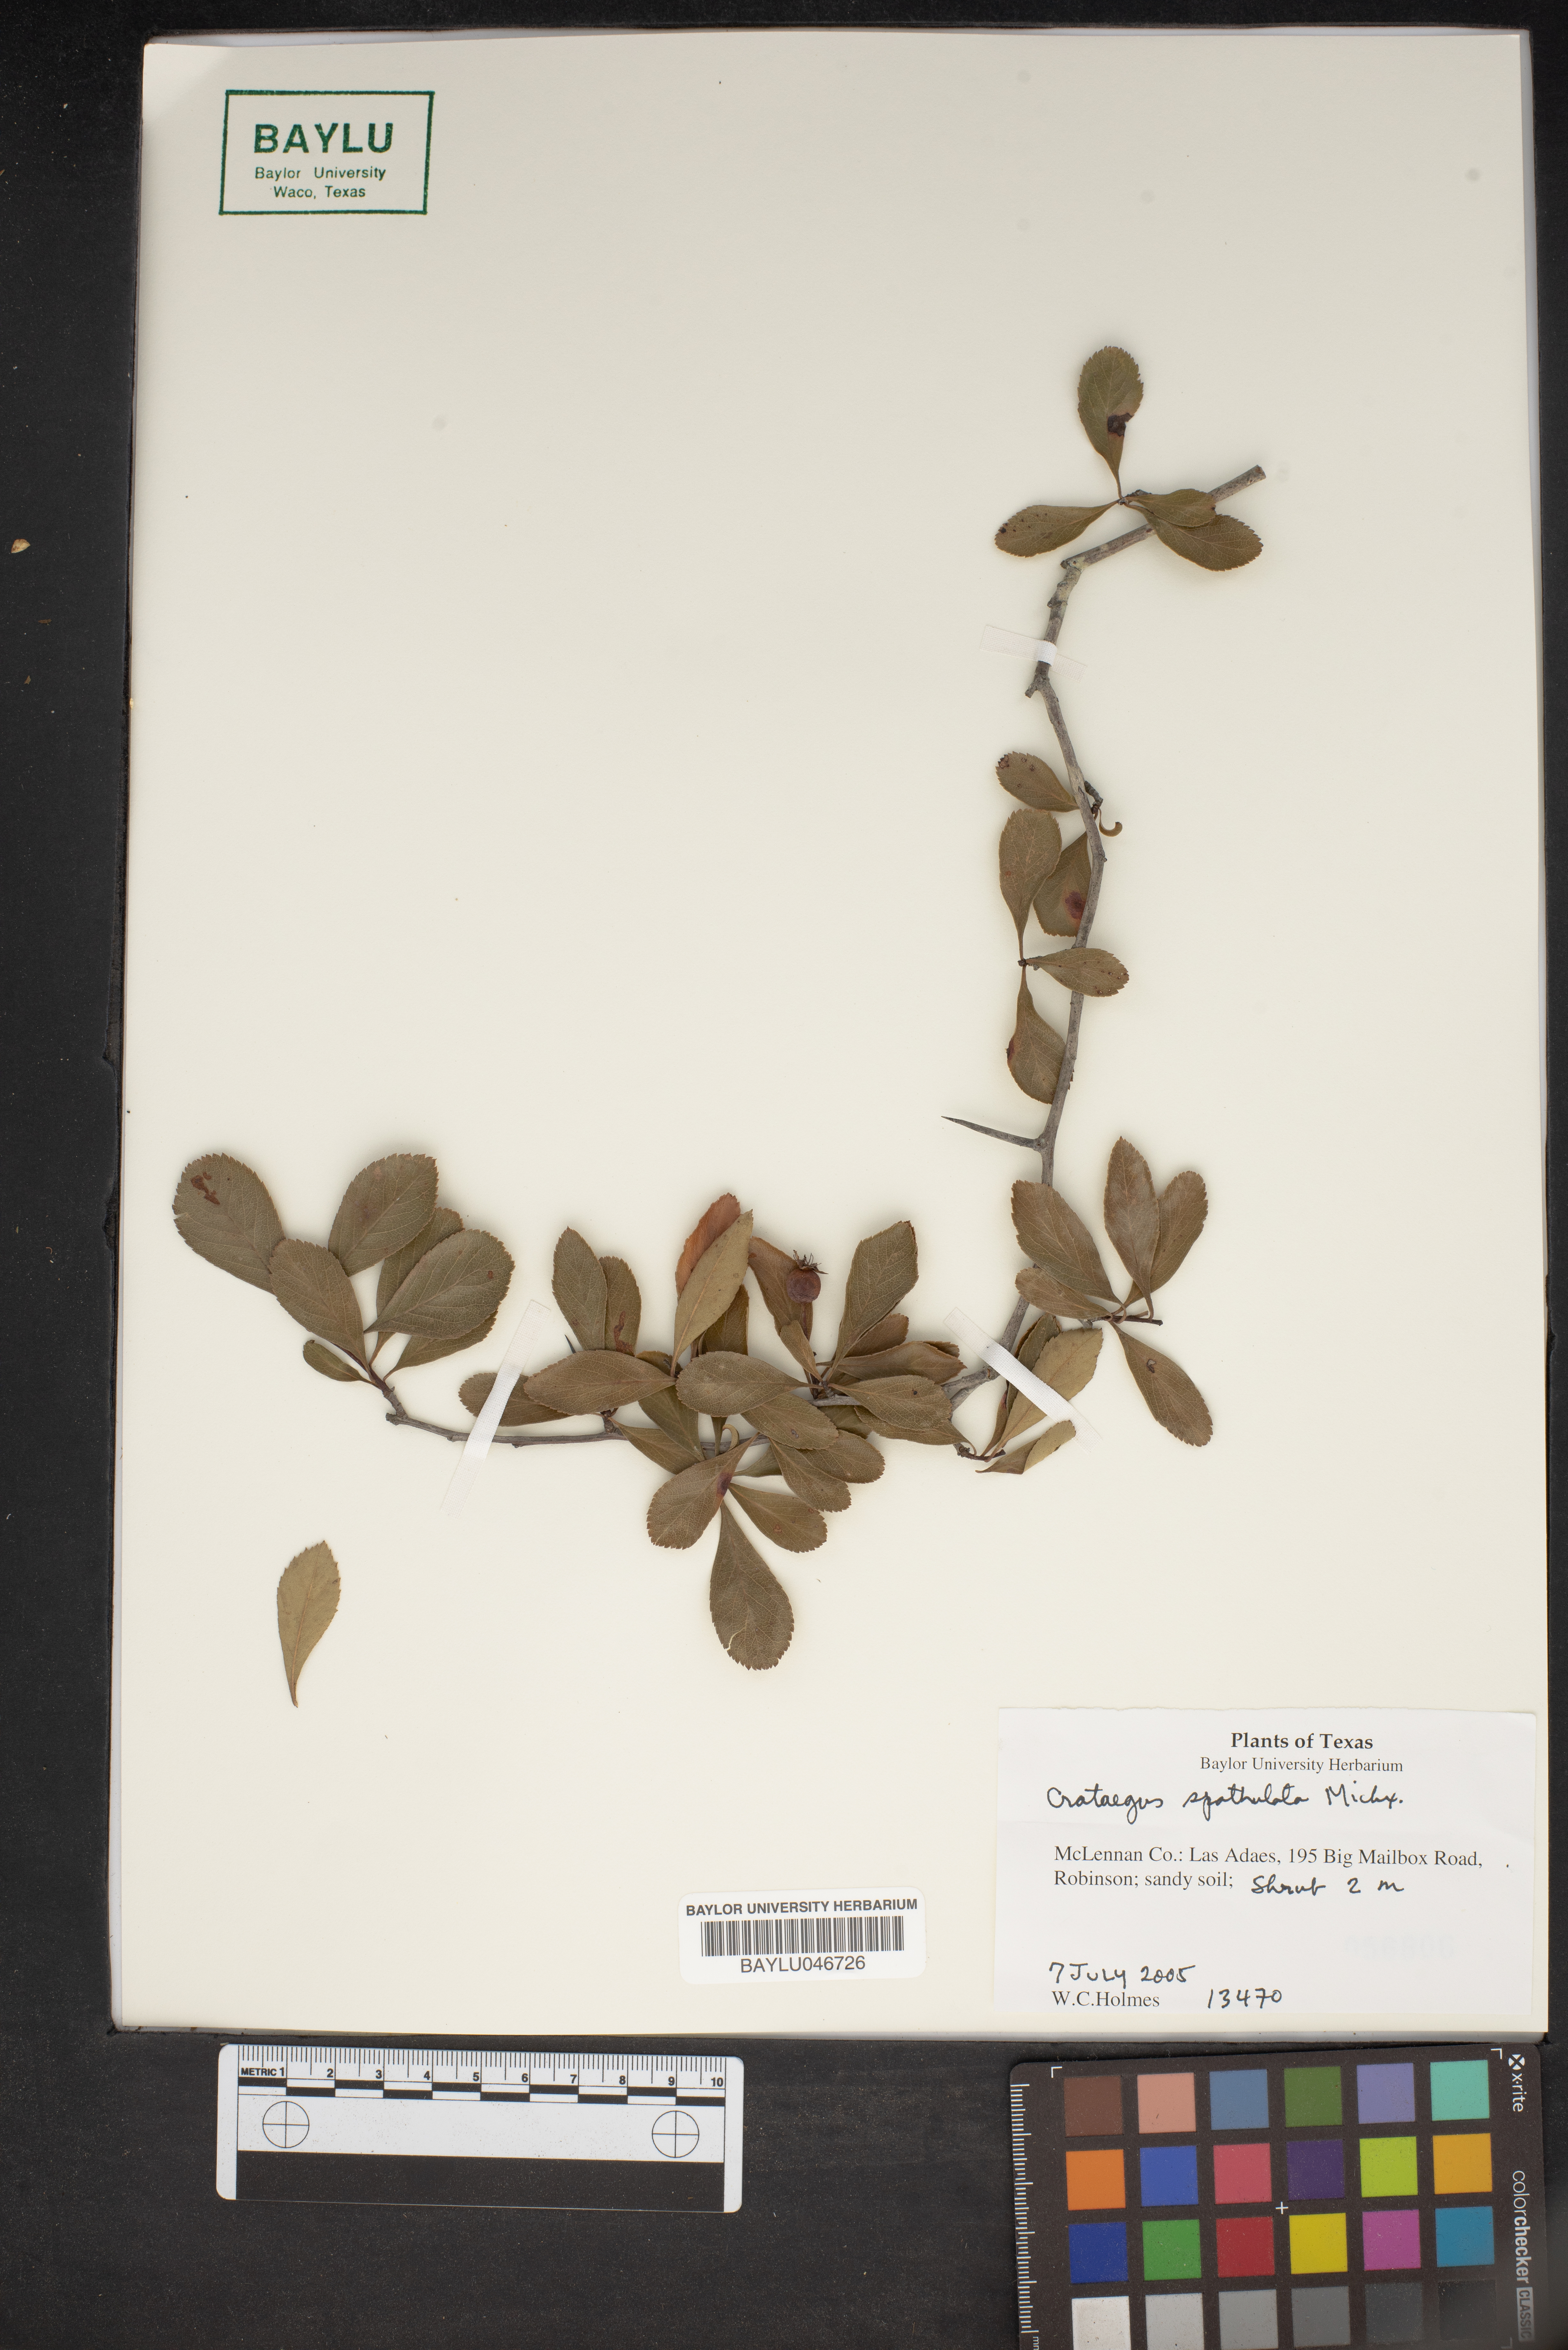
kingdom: Plantae
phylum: Tracheophyta
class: Magnoliopsida
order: Rosales
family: Rosaceae
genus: Crataegus
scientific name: Crataegus spathulata
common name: Littlehip hawthorn
